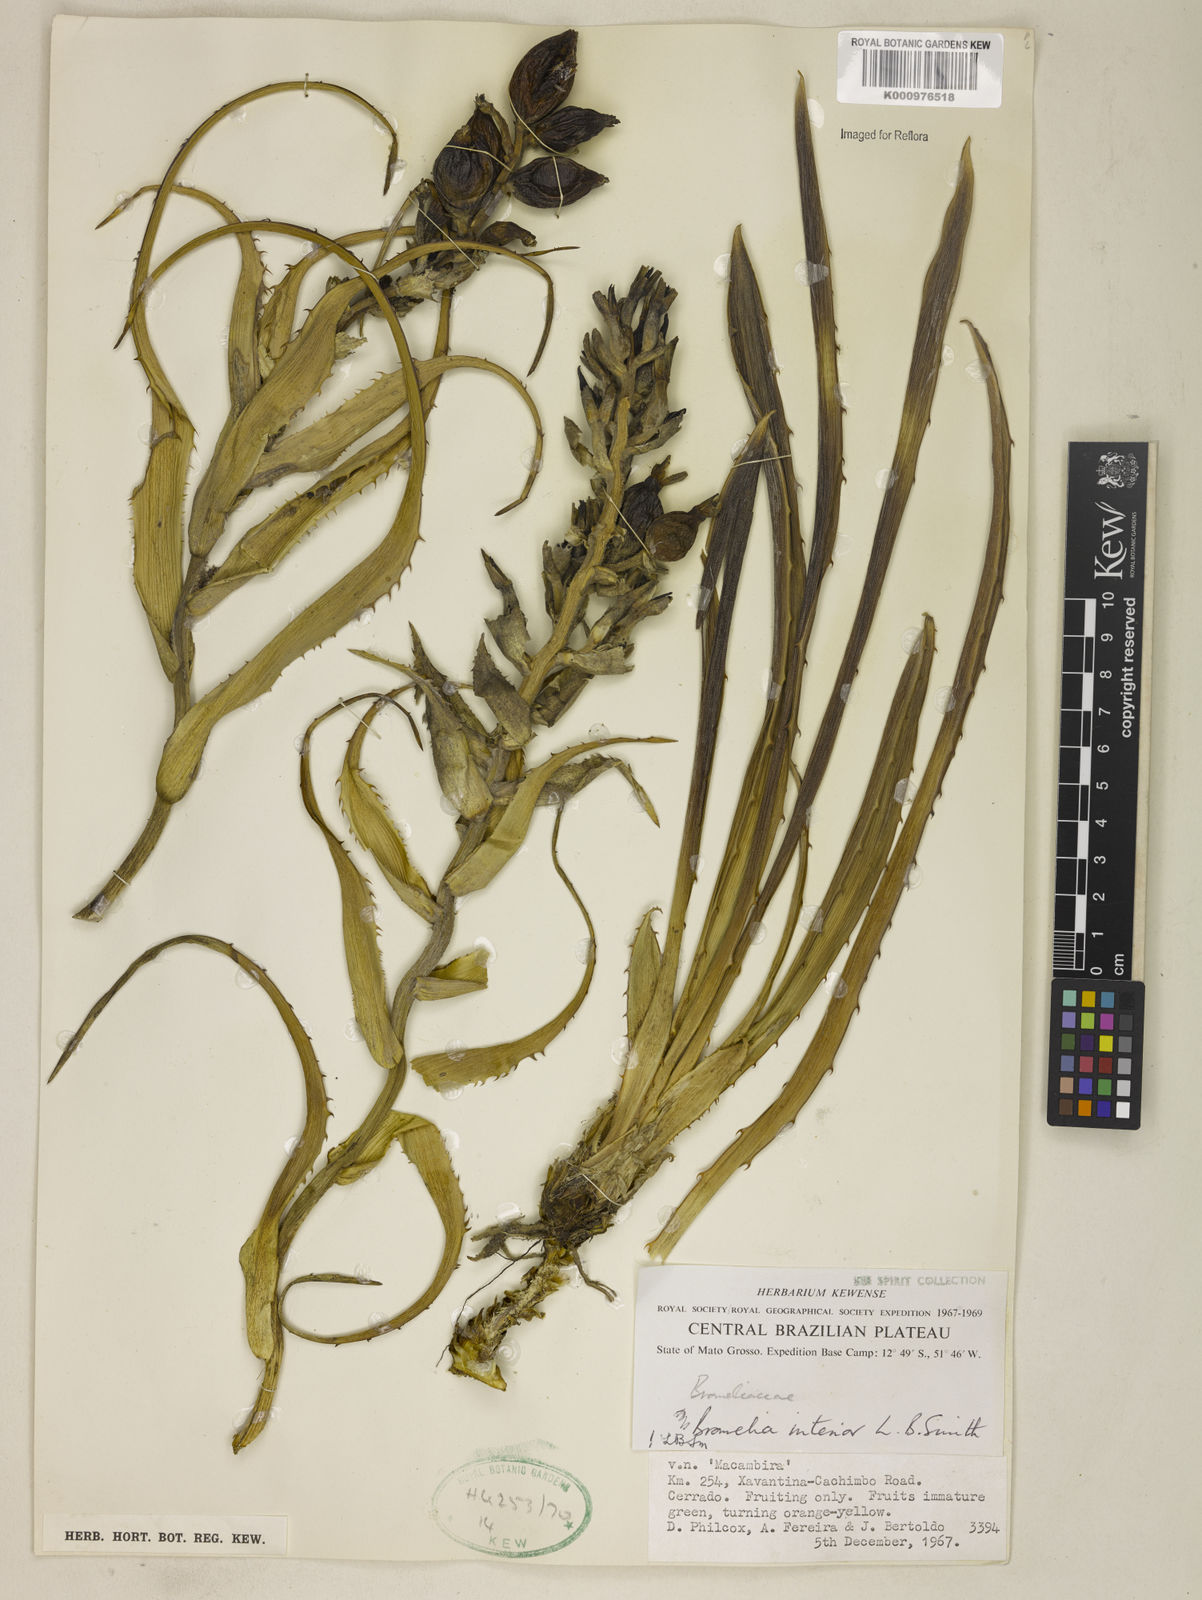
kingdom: Plantae
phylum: Tracheophyta
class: Liliopsida
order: Poales
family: Bromeliaceae
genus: Bromelia
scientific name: Bromelia interior
